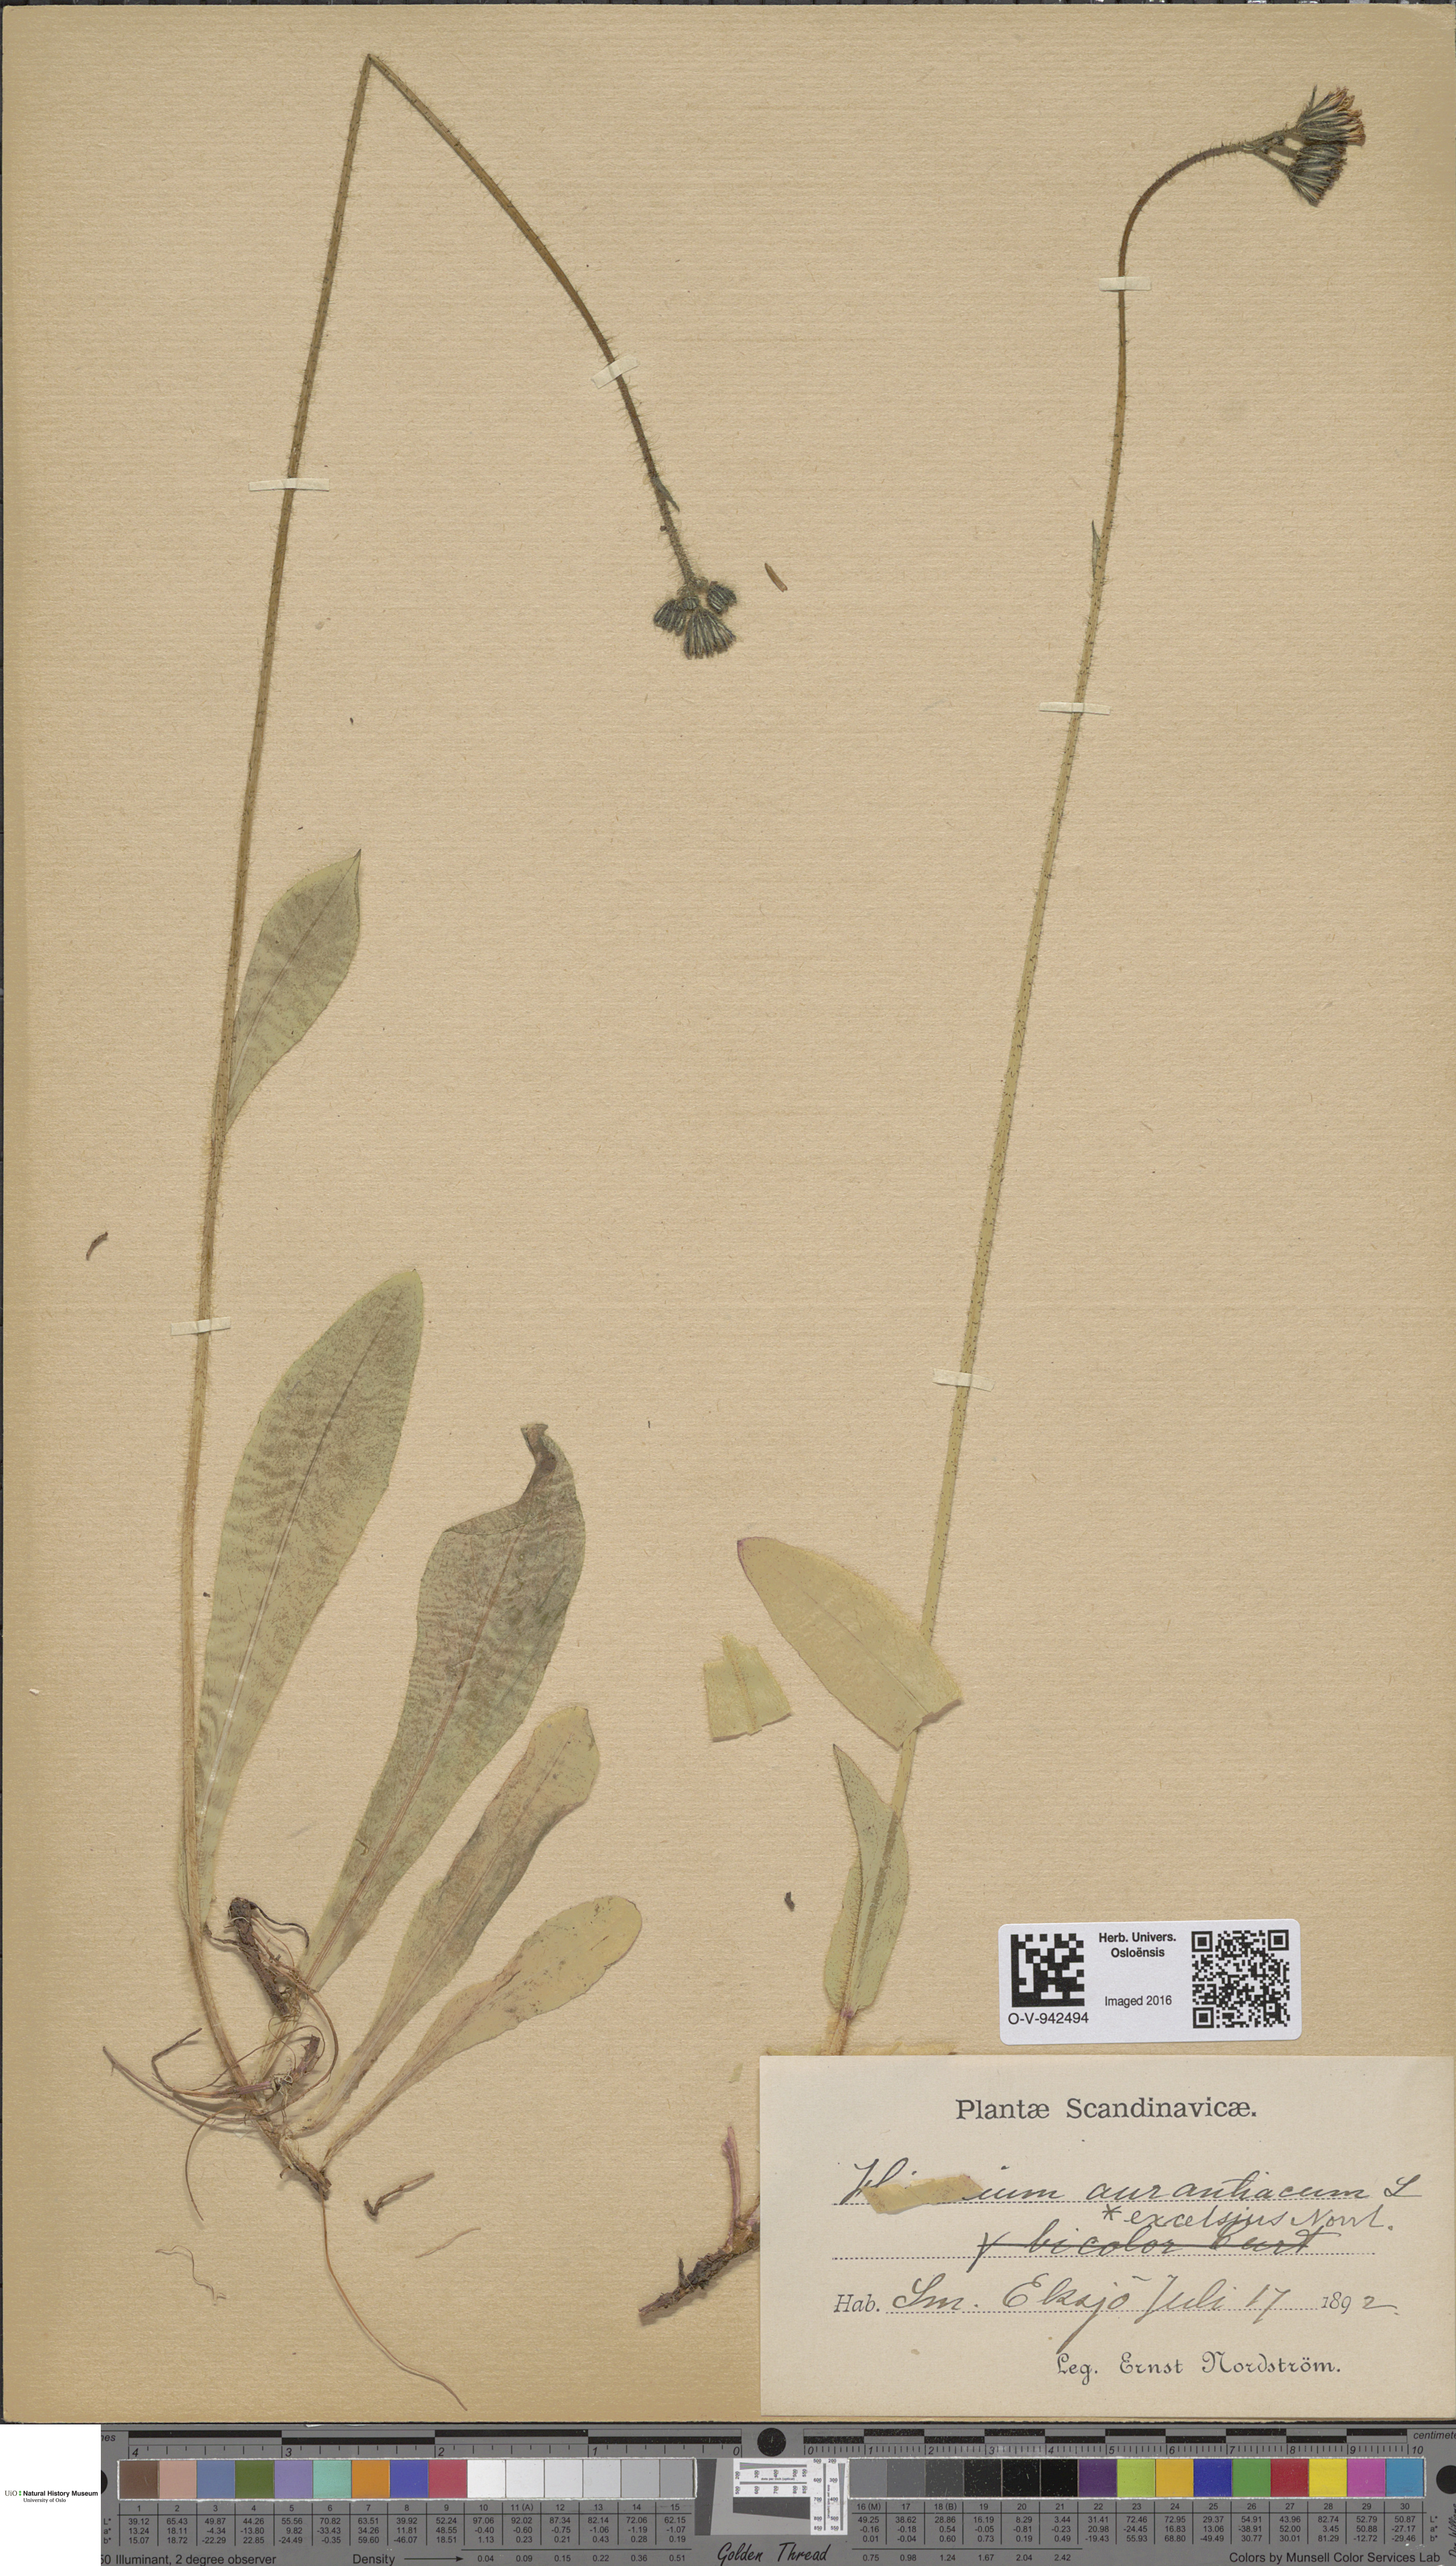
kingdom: Plantae
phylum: Tracheophyta
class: Magnoliopsida
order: Asterales
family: Asteraceae
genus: Pilosella
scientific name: Pilosella aurantiaca
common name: Fox-and-cubs
